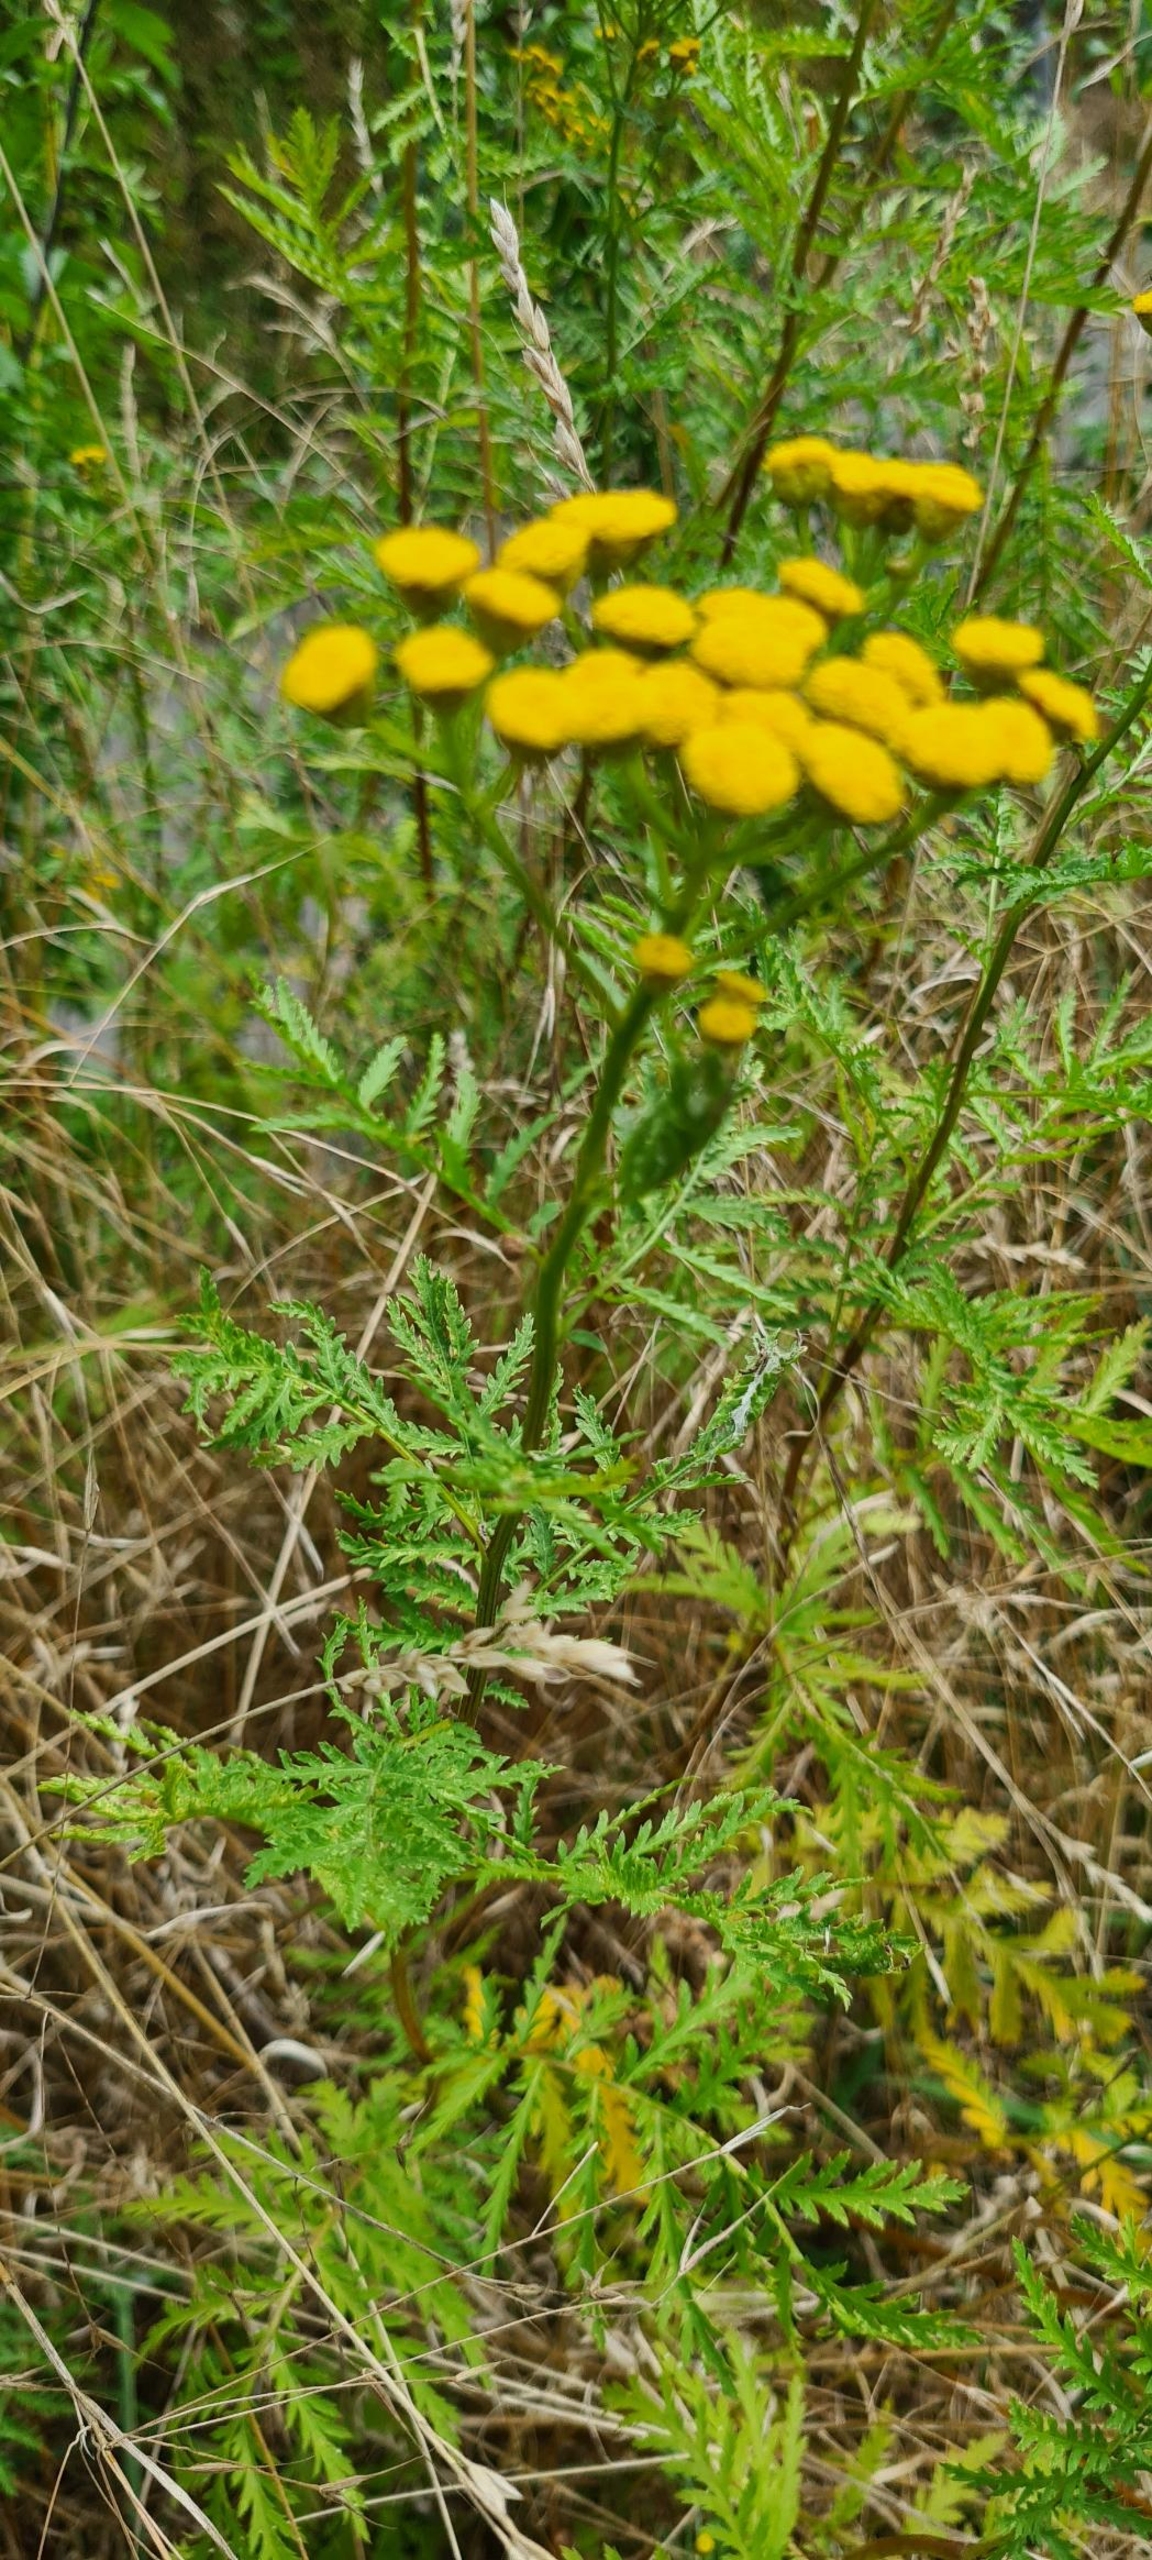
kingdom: Plantae
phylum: Tracheophyta
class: Magnoliopsida
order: Asterales
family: Asteraceae
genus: Tanacetum
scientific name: Tanacetum vulgare
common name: Rejnfan
